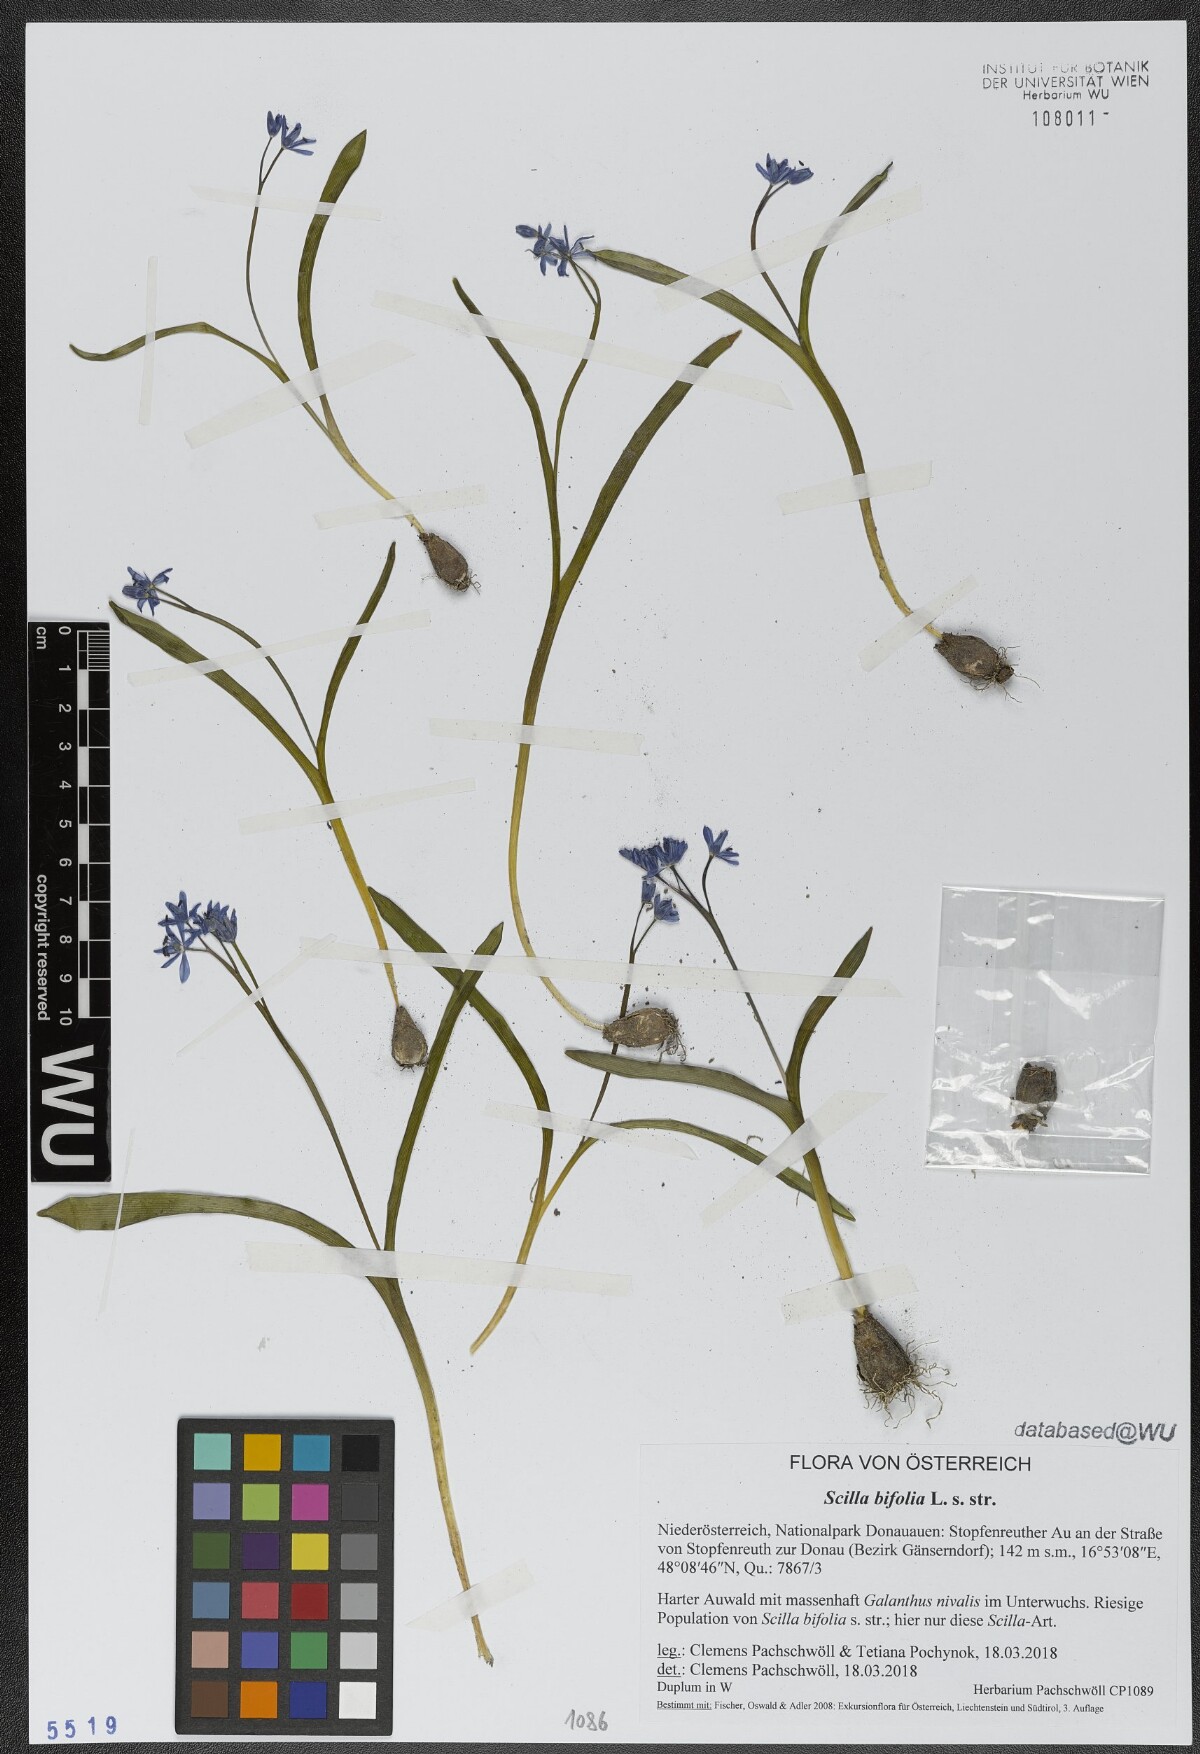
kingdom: Plantae
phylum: Tracheophyta
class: Liliopsida
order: Asparagales
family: Asparagaceae
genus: Scilla
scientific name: Scilla bifolia
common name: Alpine squill
